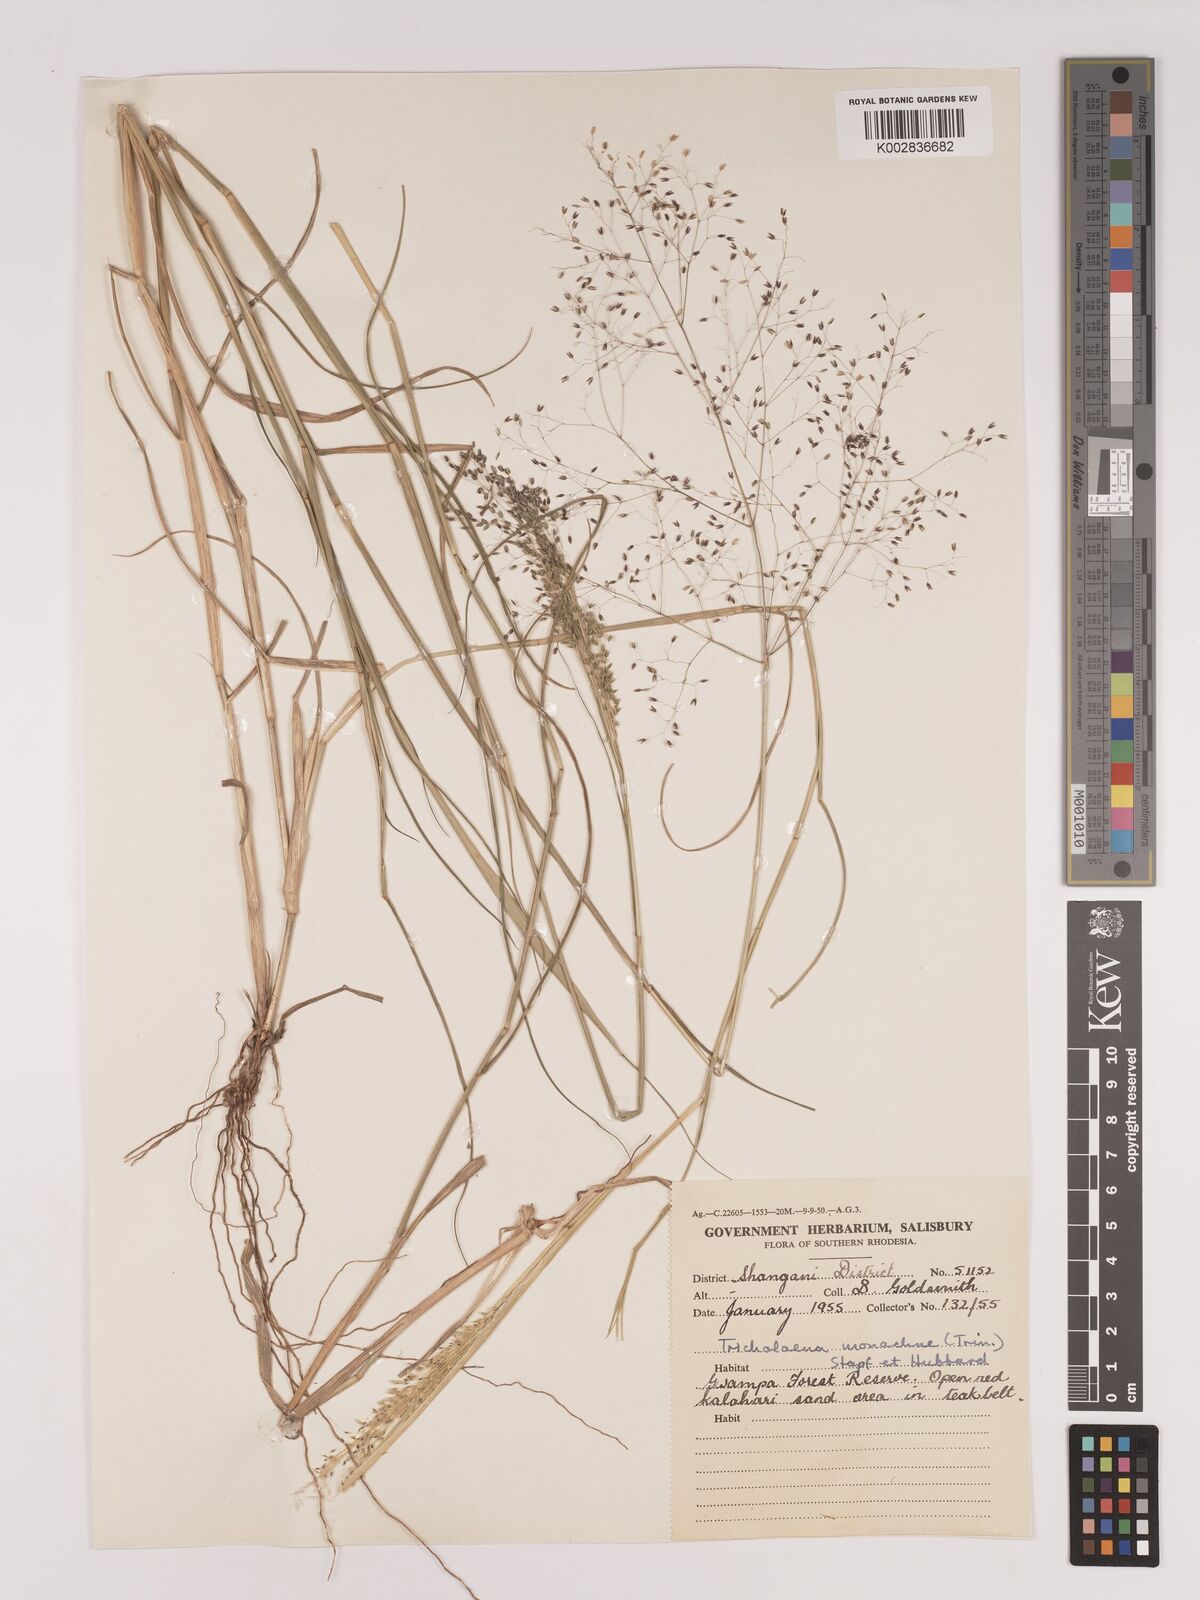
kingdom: Plantae
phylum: Tracheophyta
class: Liliopsida
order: Poales
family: Poaceae
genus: Tricholaena
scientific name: Tricholaena monachne
